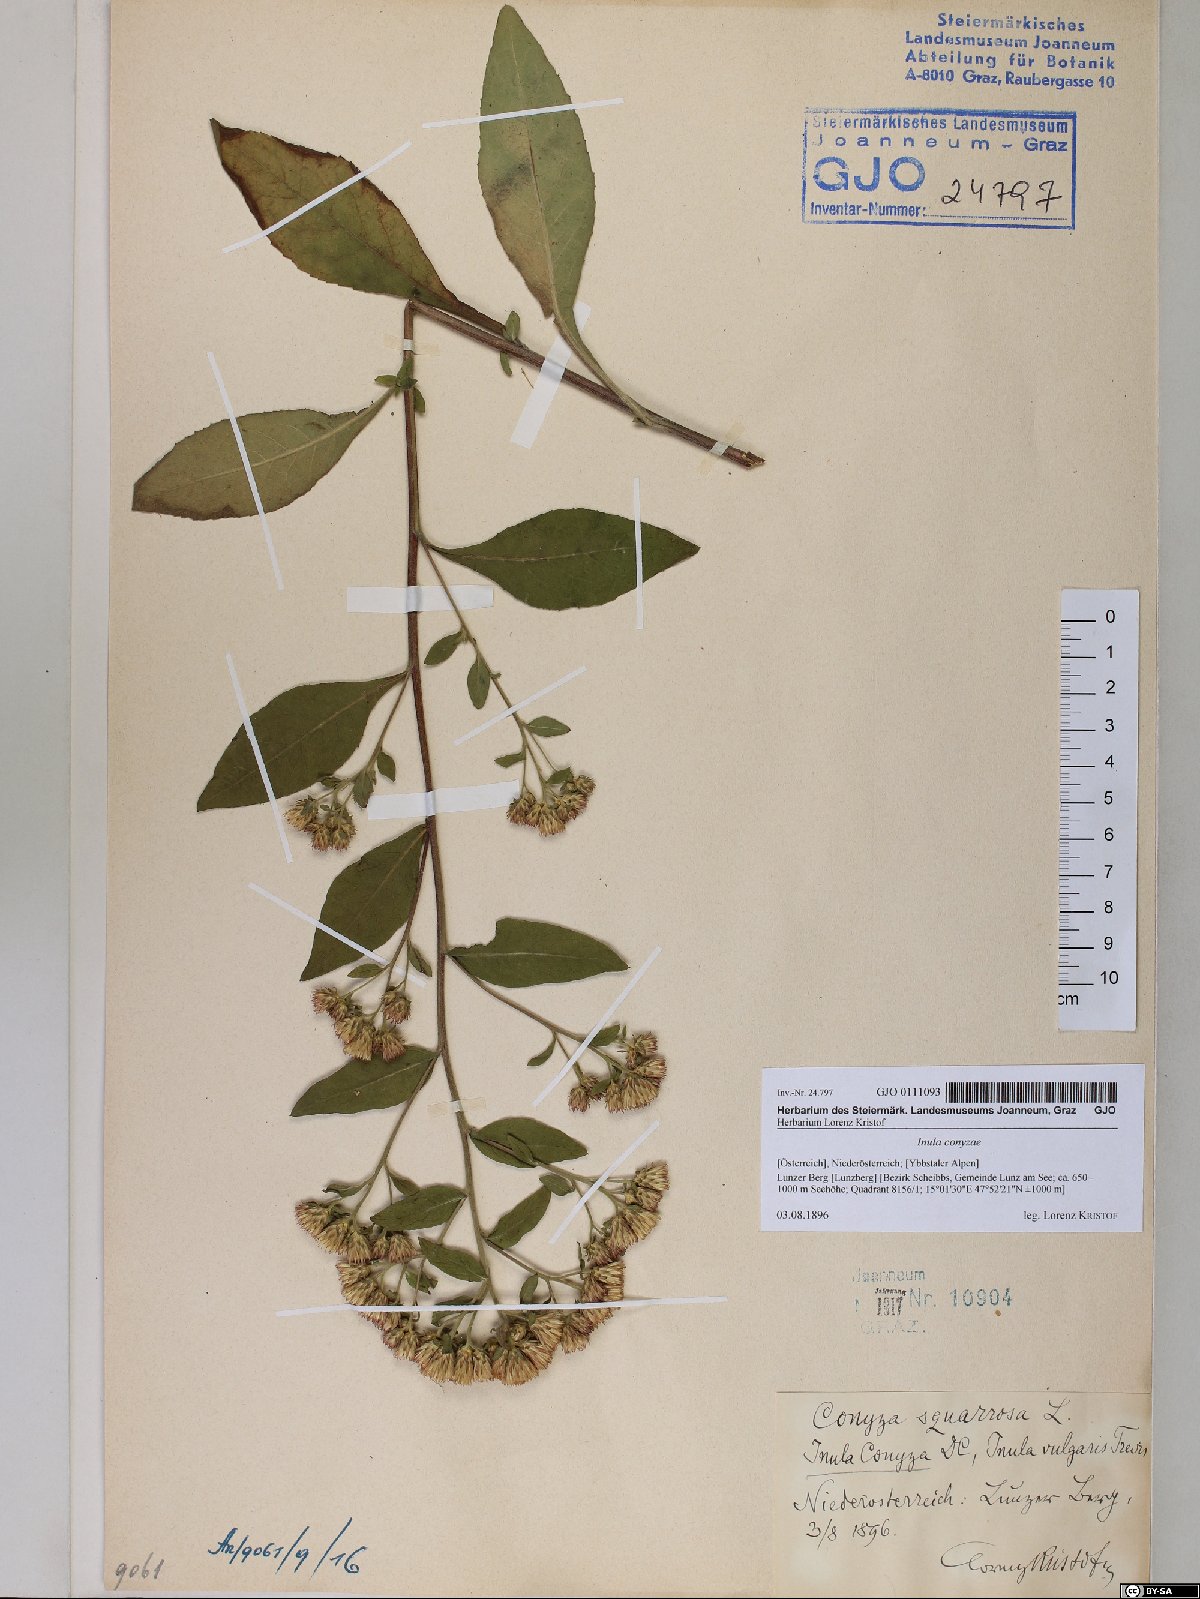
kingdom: Plantae
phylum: Tracheophyta
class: Magnoliopsida
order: Asterales
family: Asteraceae
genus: Pentanema
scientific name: Pentanema squarrosum
